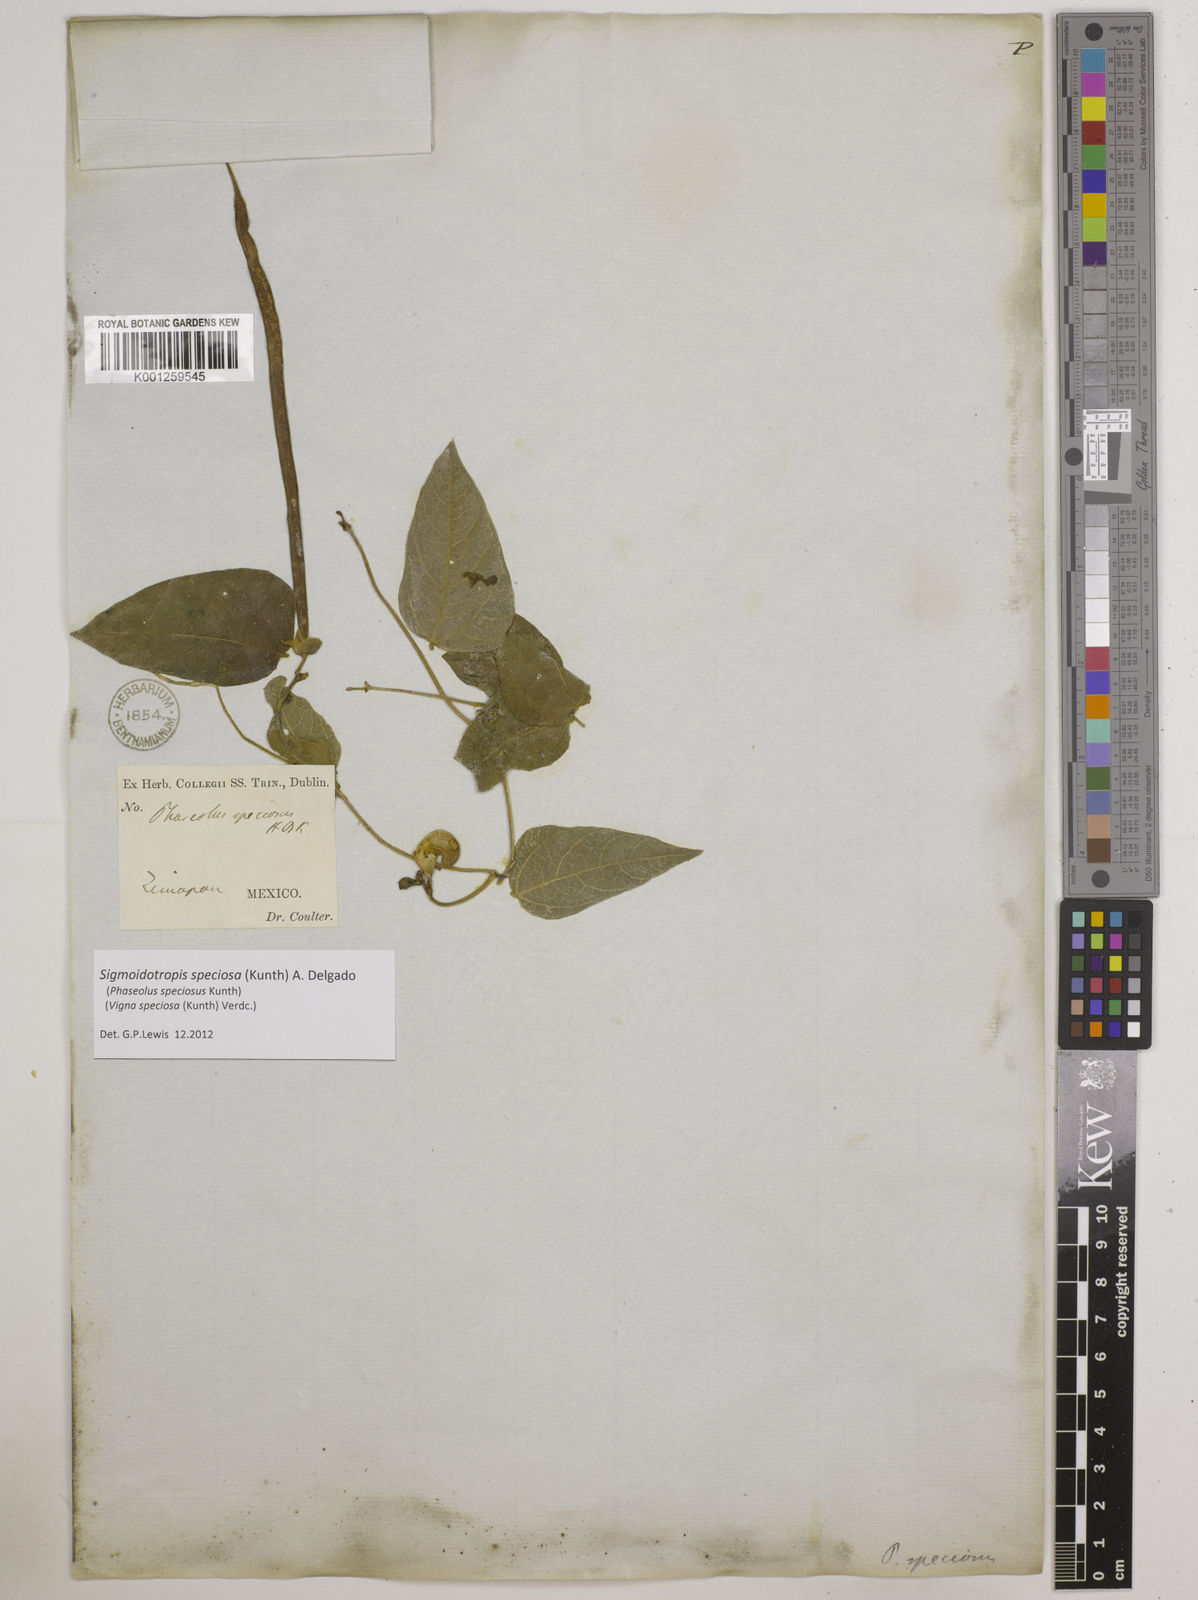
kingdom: Plantae
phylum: Tracheophyta
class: Magnoliopsida
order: Fabales
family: Fabaceae
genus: Sigmoidotropis
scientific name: Sigmoidotropis speciosa
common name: Snail flower
